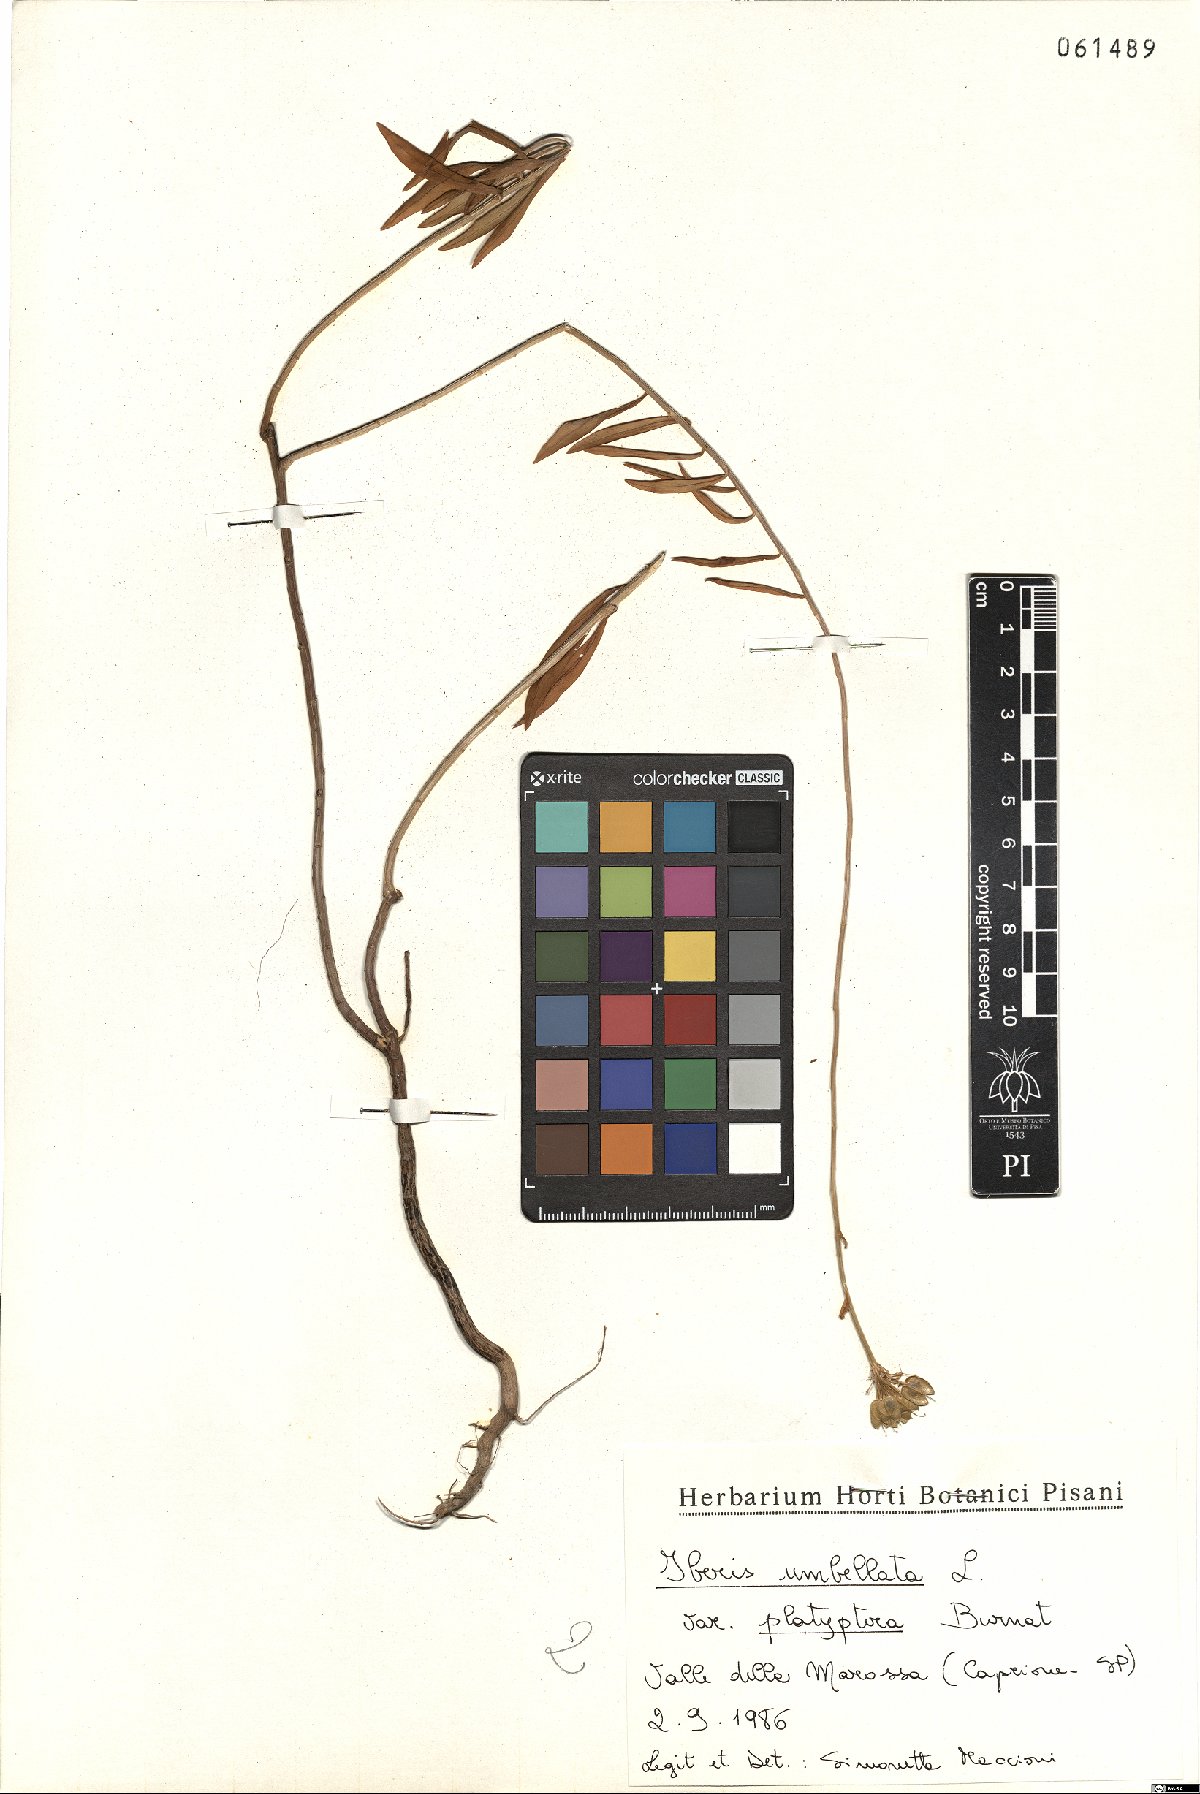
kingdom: Plantae
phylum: Tracheophyta
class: Magnoliopsida
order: Brassicales
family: Brassicaceae
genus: Iberis
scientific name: Iberis umbellata
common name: Globe candytuft
